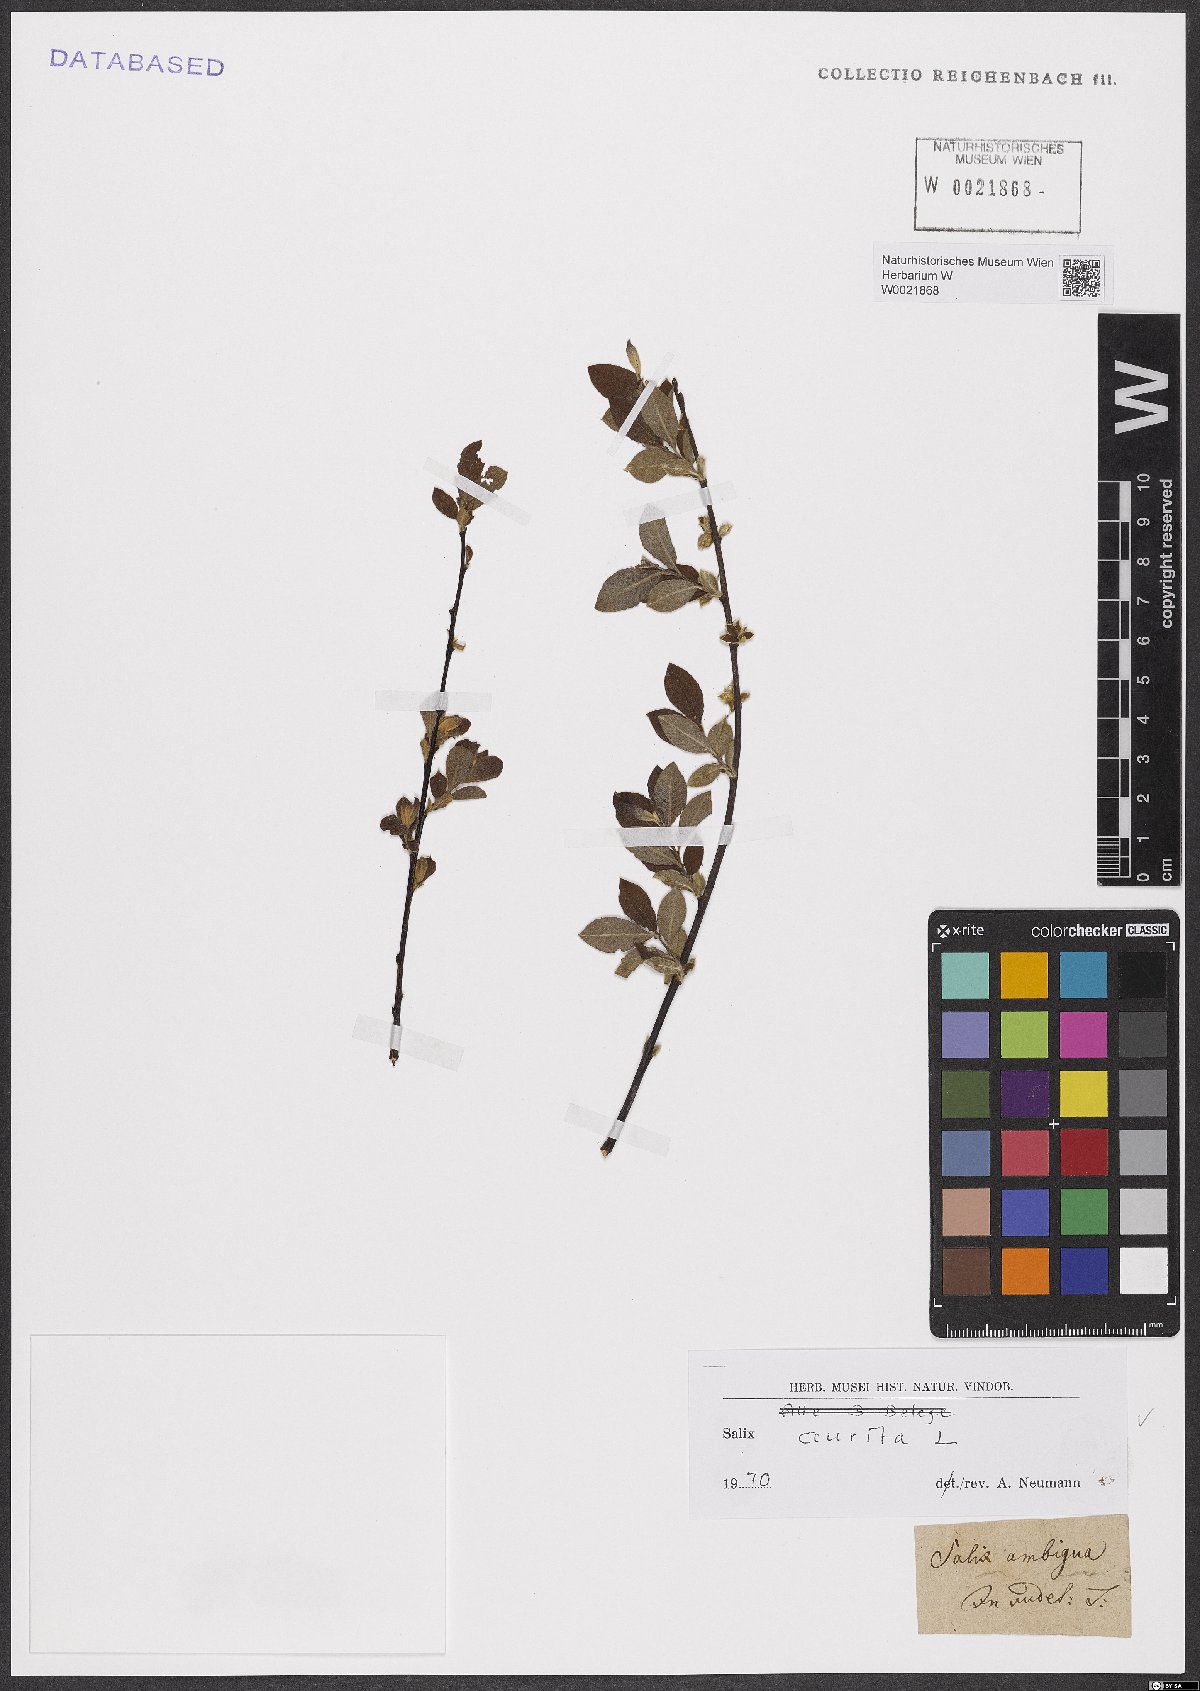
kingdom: Plantae
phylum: Tracheophyta
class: Magnoliopsida
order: Malpighiales
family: Salicaceae
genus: Salix
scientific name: Salix aurita
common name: Eared willow
